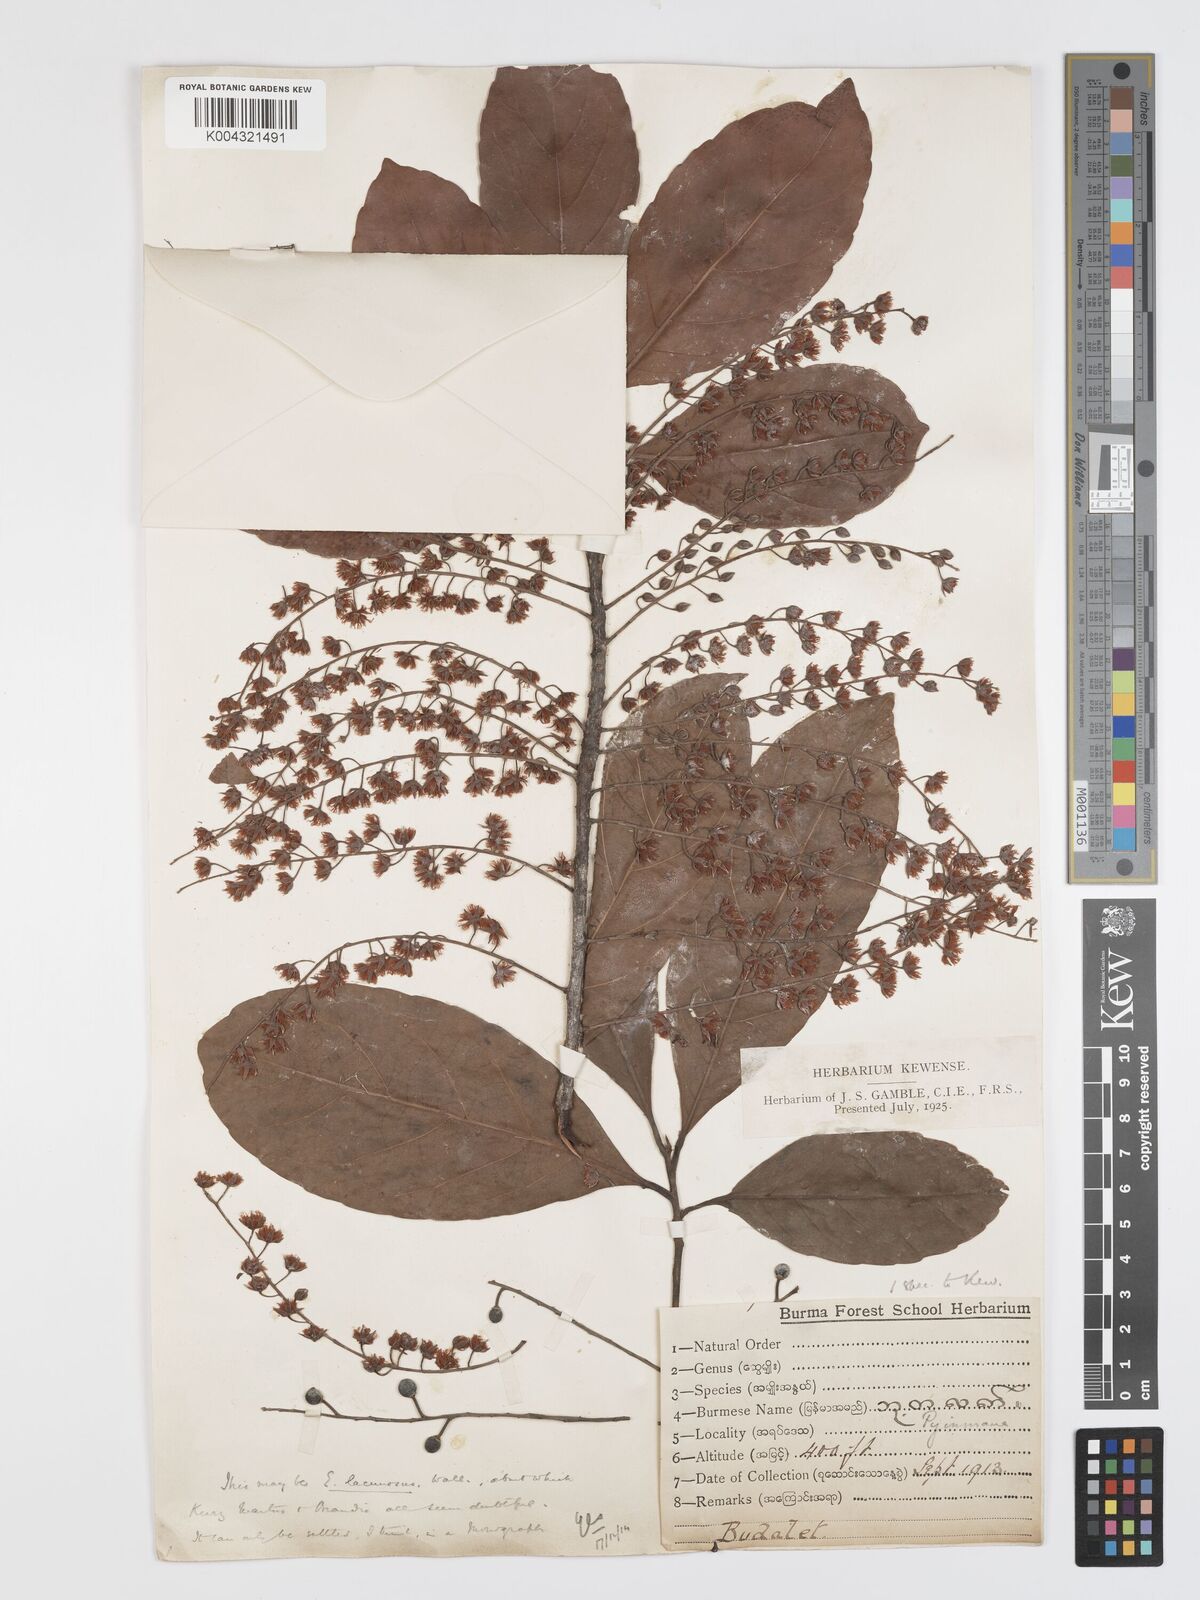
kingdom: Plantae
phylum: Tracheophyta
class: Magnoliopsida
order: Oxalidales
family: Elaeocarpaceae
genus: Elaeocarpus
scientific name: Elaeocarpus lanceifolius
